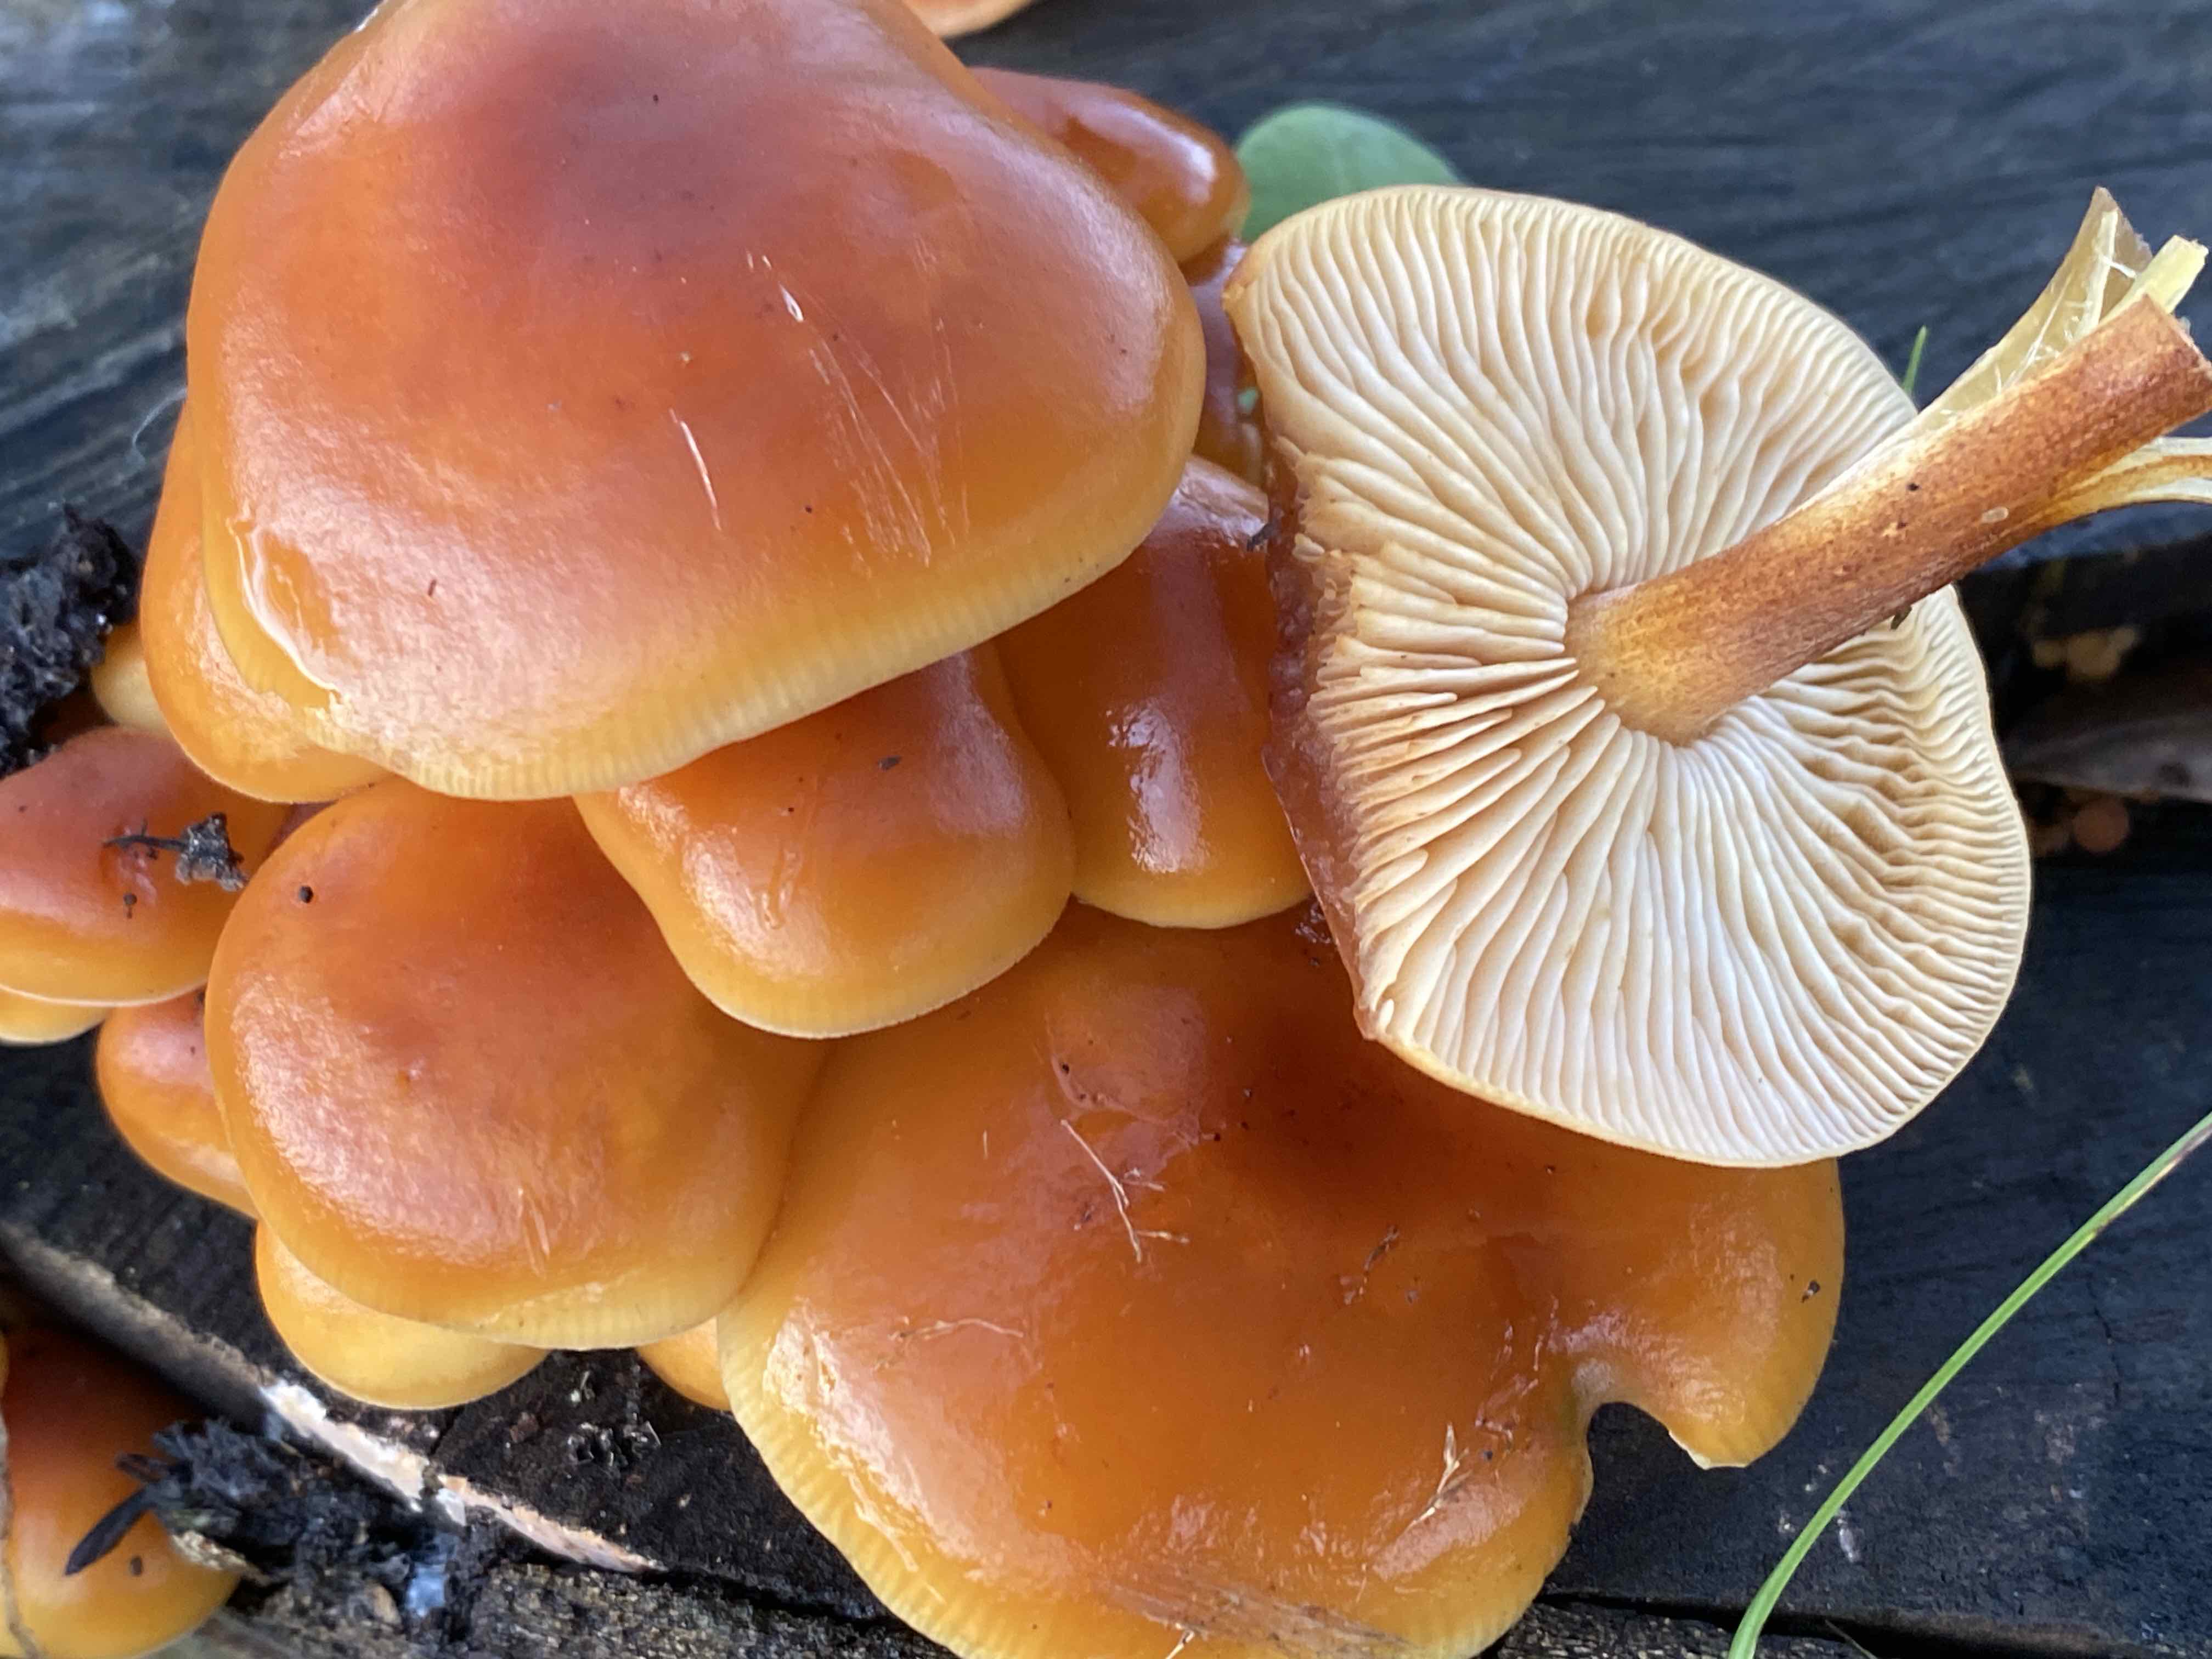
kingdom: Fungi
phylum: Basidiomycota
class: Agaricomycetes
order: Agaricales
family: Physalacriaceae
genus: Flammulina
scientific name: Flammulina
